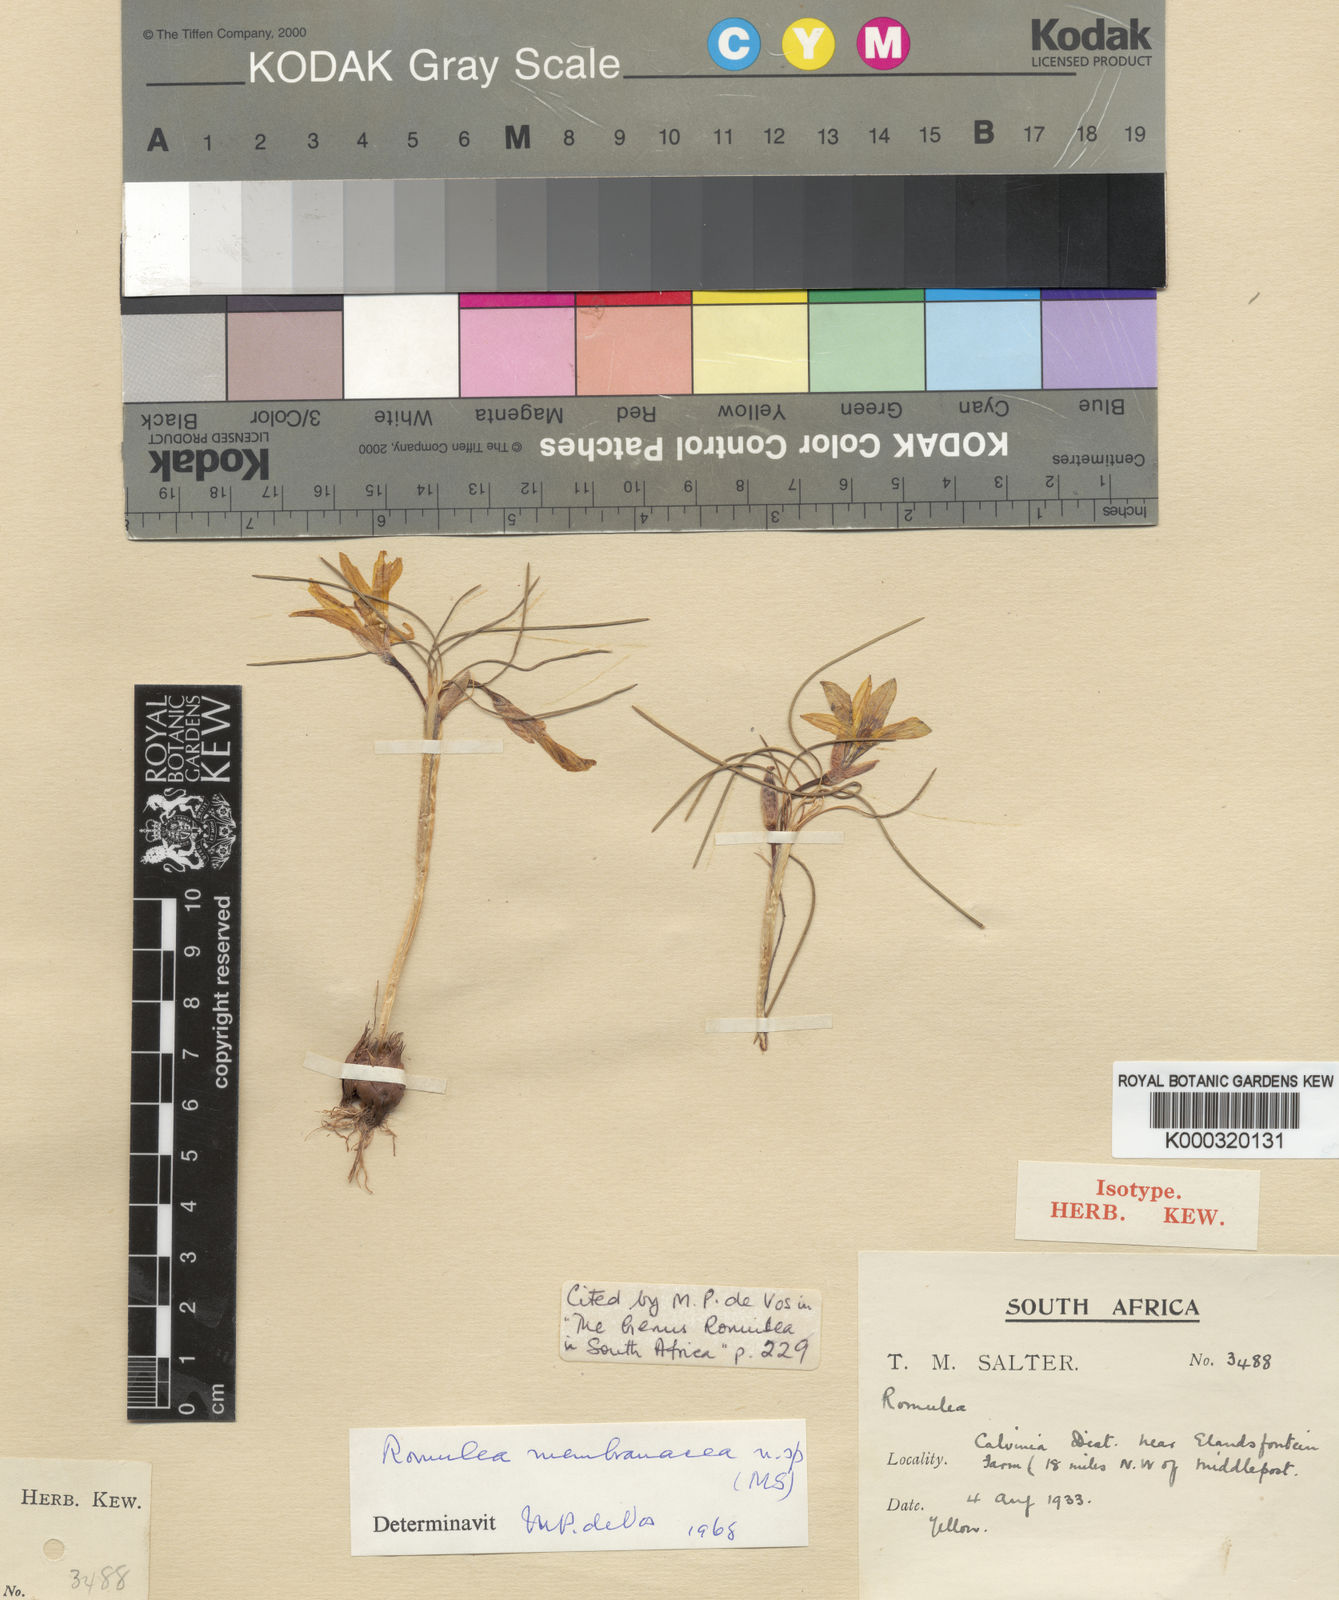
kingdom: Plantae
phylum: Tracheophyta
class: Liliopsida
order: Asparagales
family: Iridaceae
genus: Romulea
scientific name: Romulea membranacea
